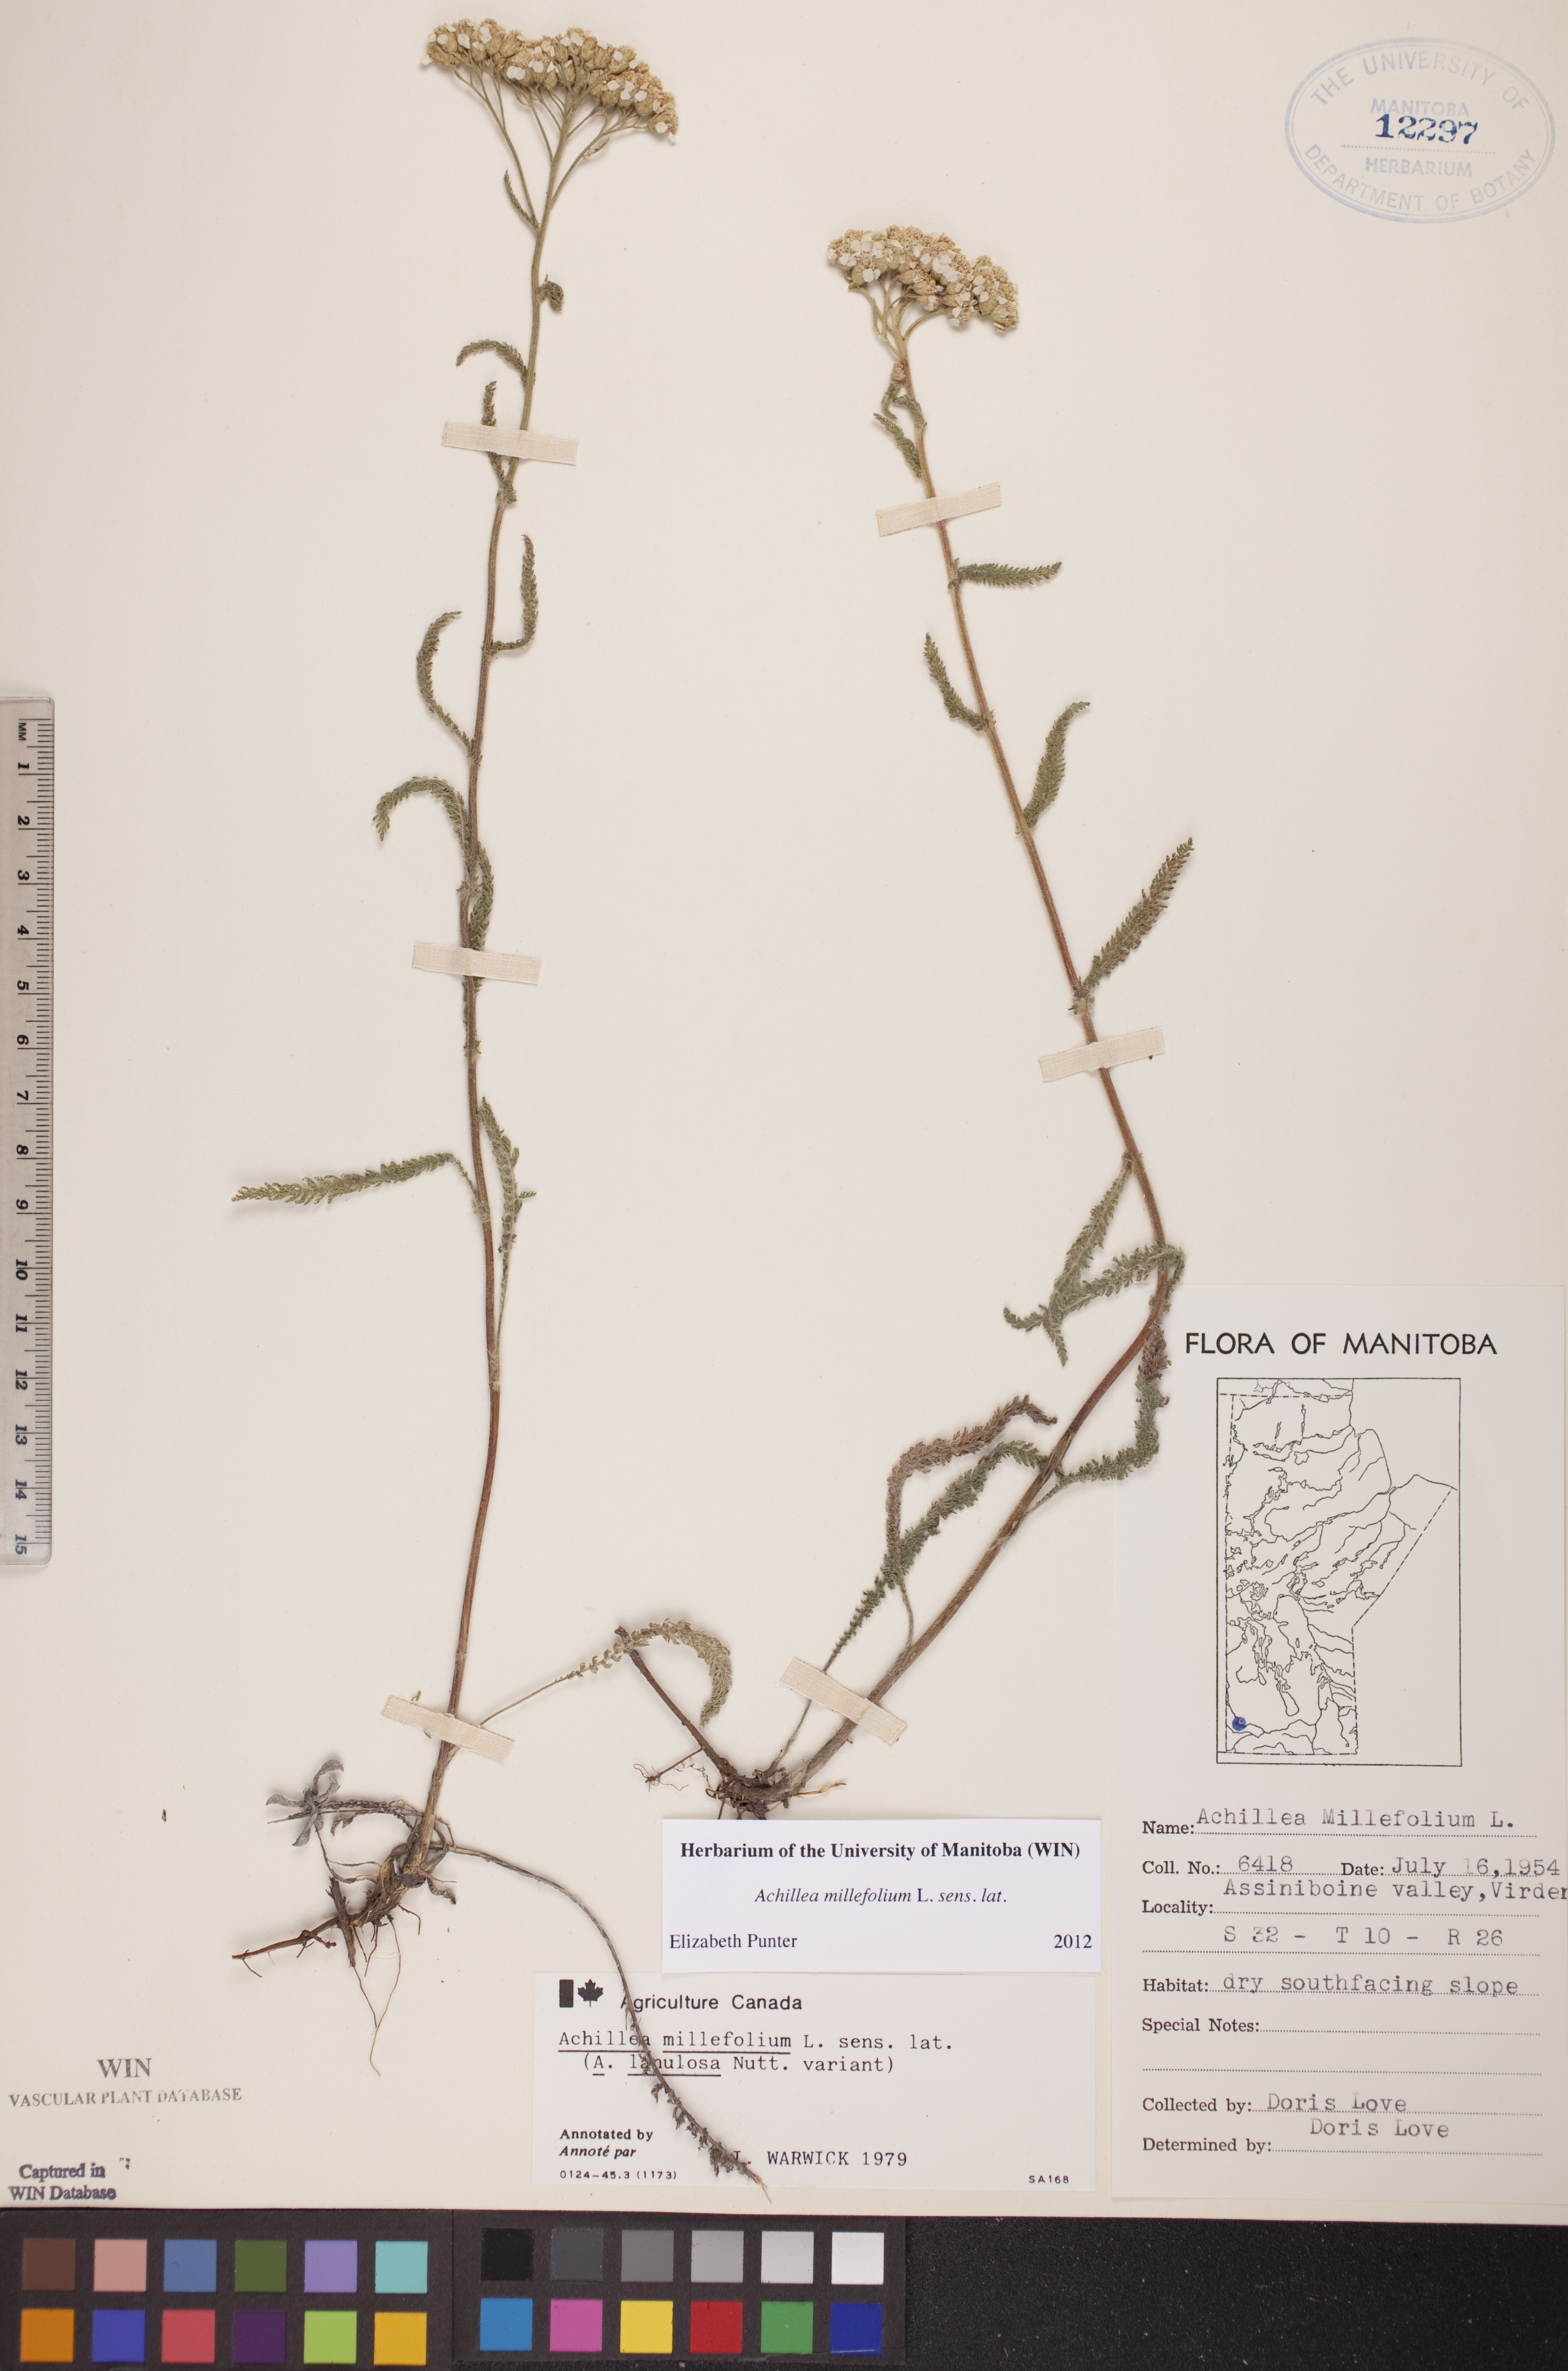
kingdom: Plantae
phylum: Tracheophyta
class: Magnoliopsida
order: Asterales
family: Asteraceae
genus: Achillea
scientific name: Achillea millefolium
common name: Yarrow
